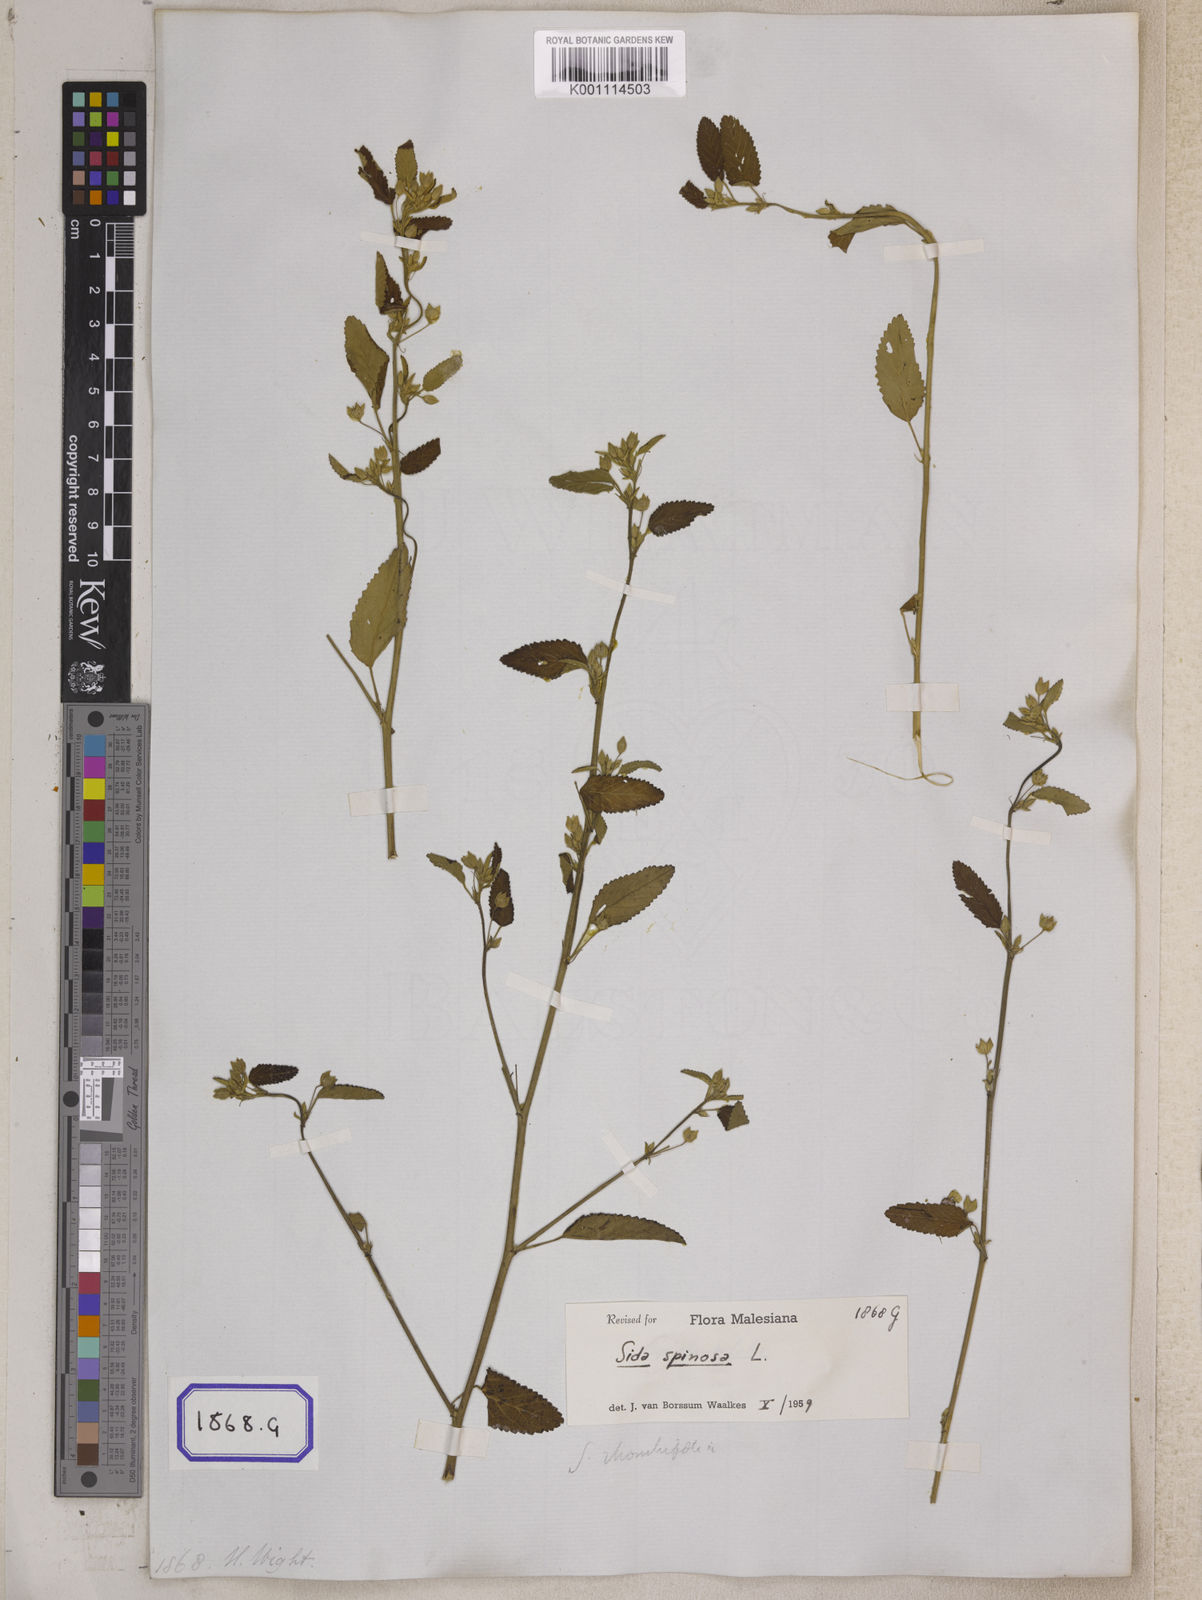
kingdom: Plantae
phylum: Tracheophyta
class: Magnoliopsida
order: Malvales
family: Malvaceae
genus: Sida
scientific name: Sida acuta
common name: Common wireweed
